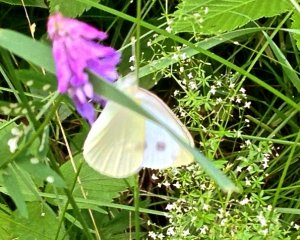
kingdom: Animalia
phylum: Arthropoda
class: Insecta
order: Lepidoptera
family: Pieridae
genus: Pieris
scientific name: Pieris rapae
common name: Cabbage White
